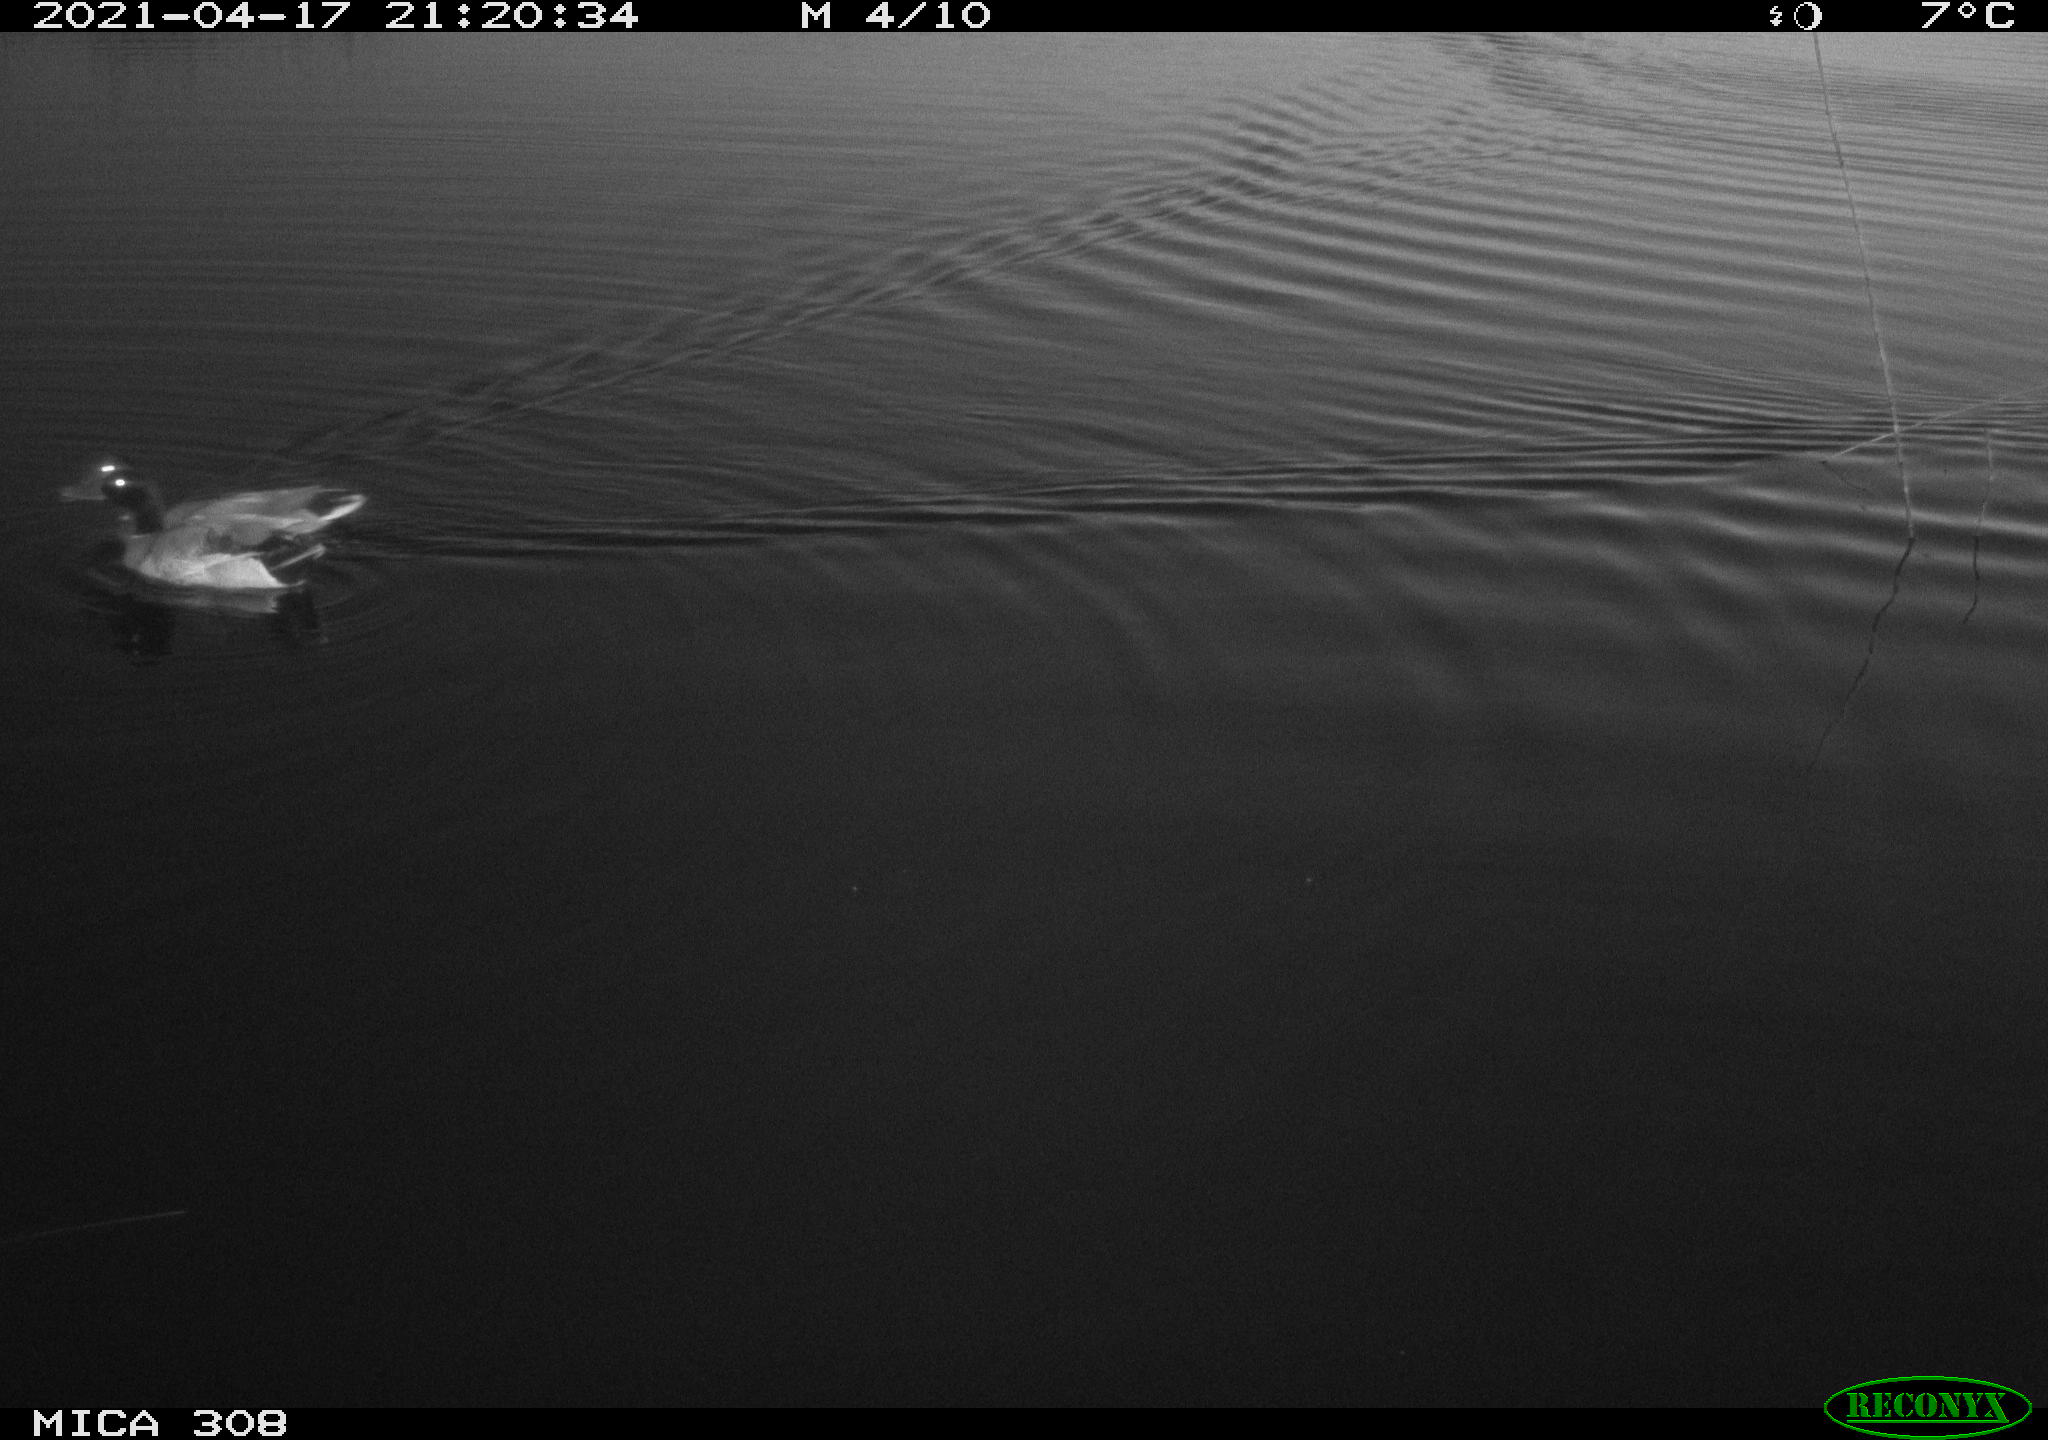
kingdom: Animalia
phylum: Chordata
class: Aves
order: Anseriformes
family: Anatidae
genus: Anas
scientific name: Anas platyrhynchos
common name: Mallard
